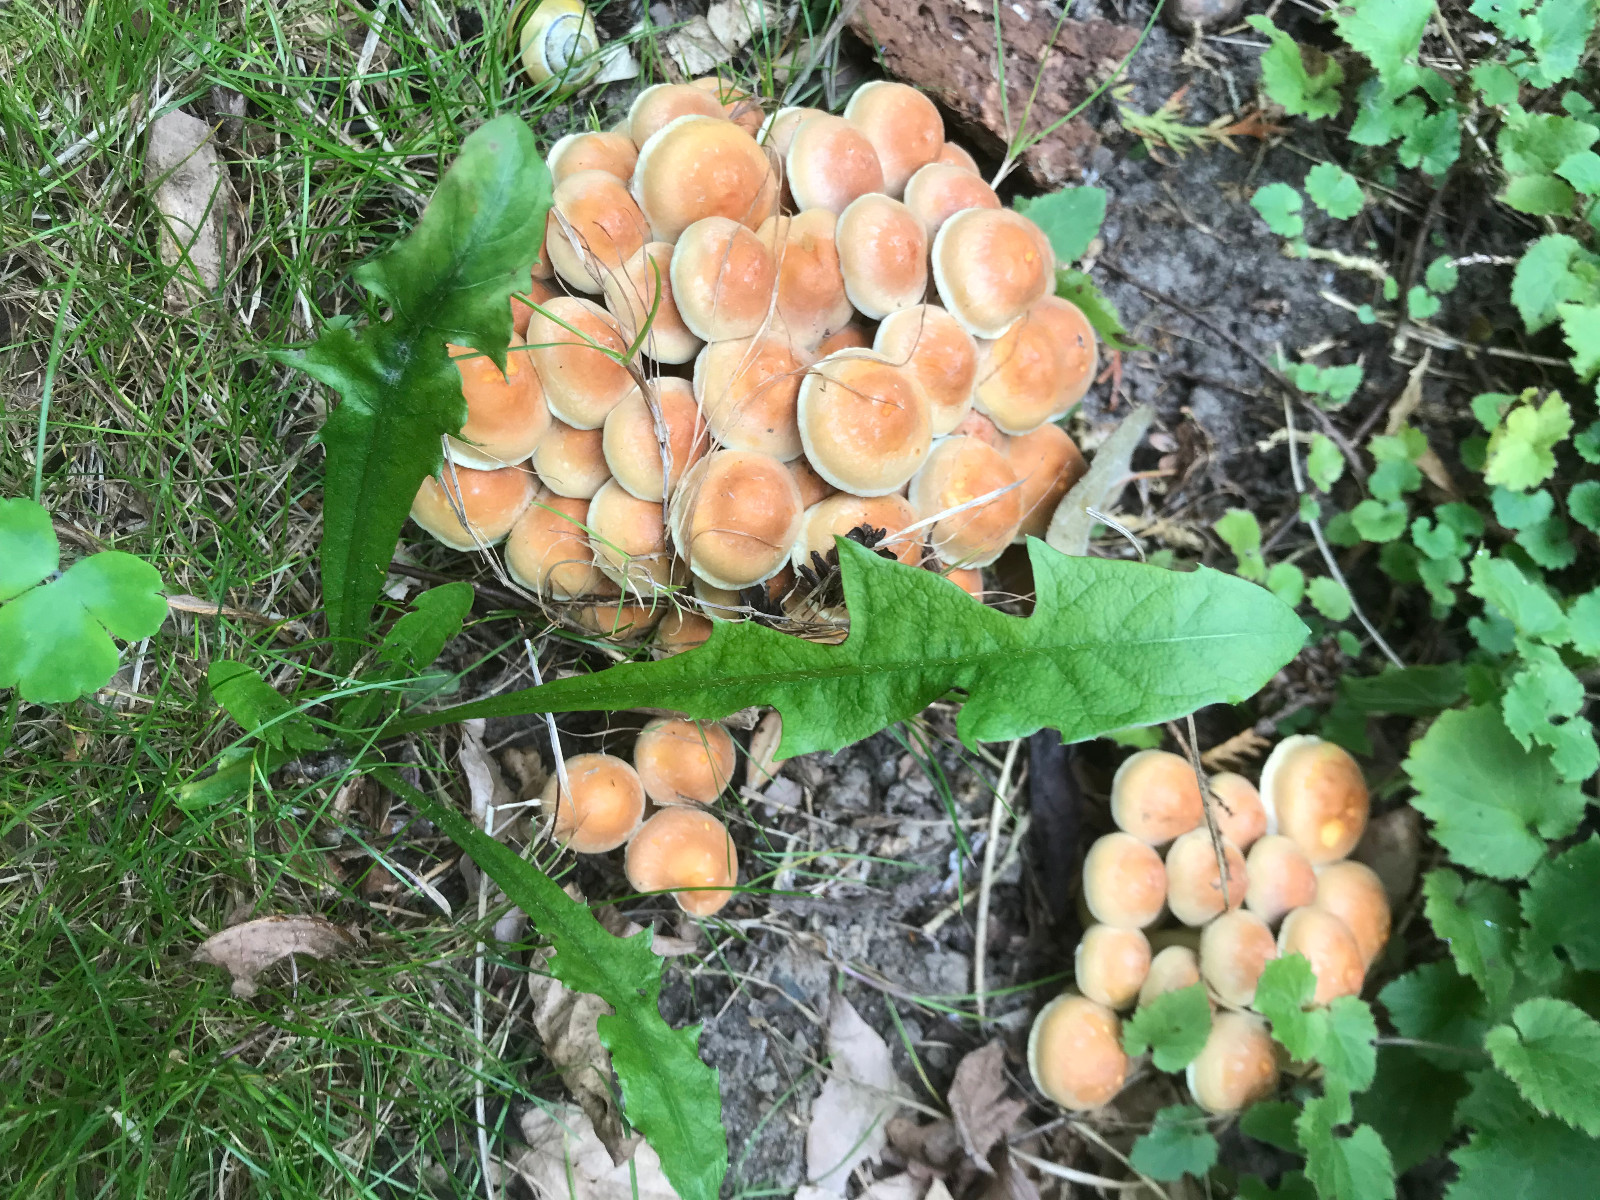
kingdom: Fungi
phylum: Basidiomycota
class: Agaricomycetes
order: Agaricales
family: Strophariaceae
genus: Hypholoma
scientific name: Hypholoma lateritium
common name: teglrød svovlhat
